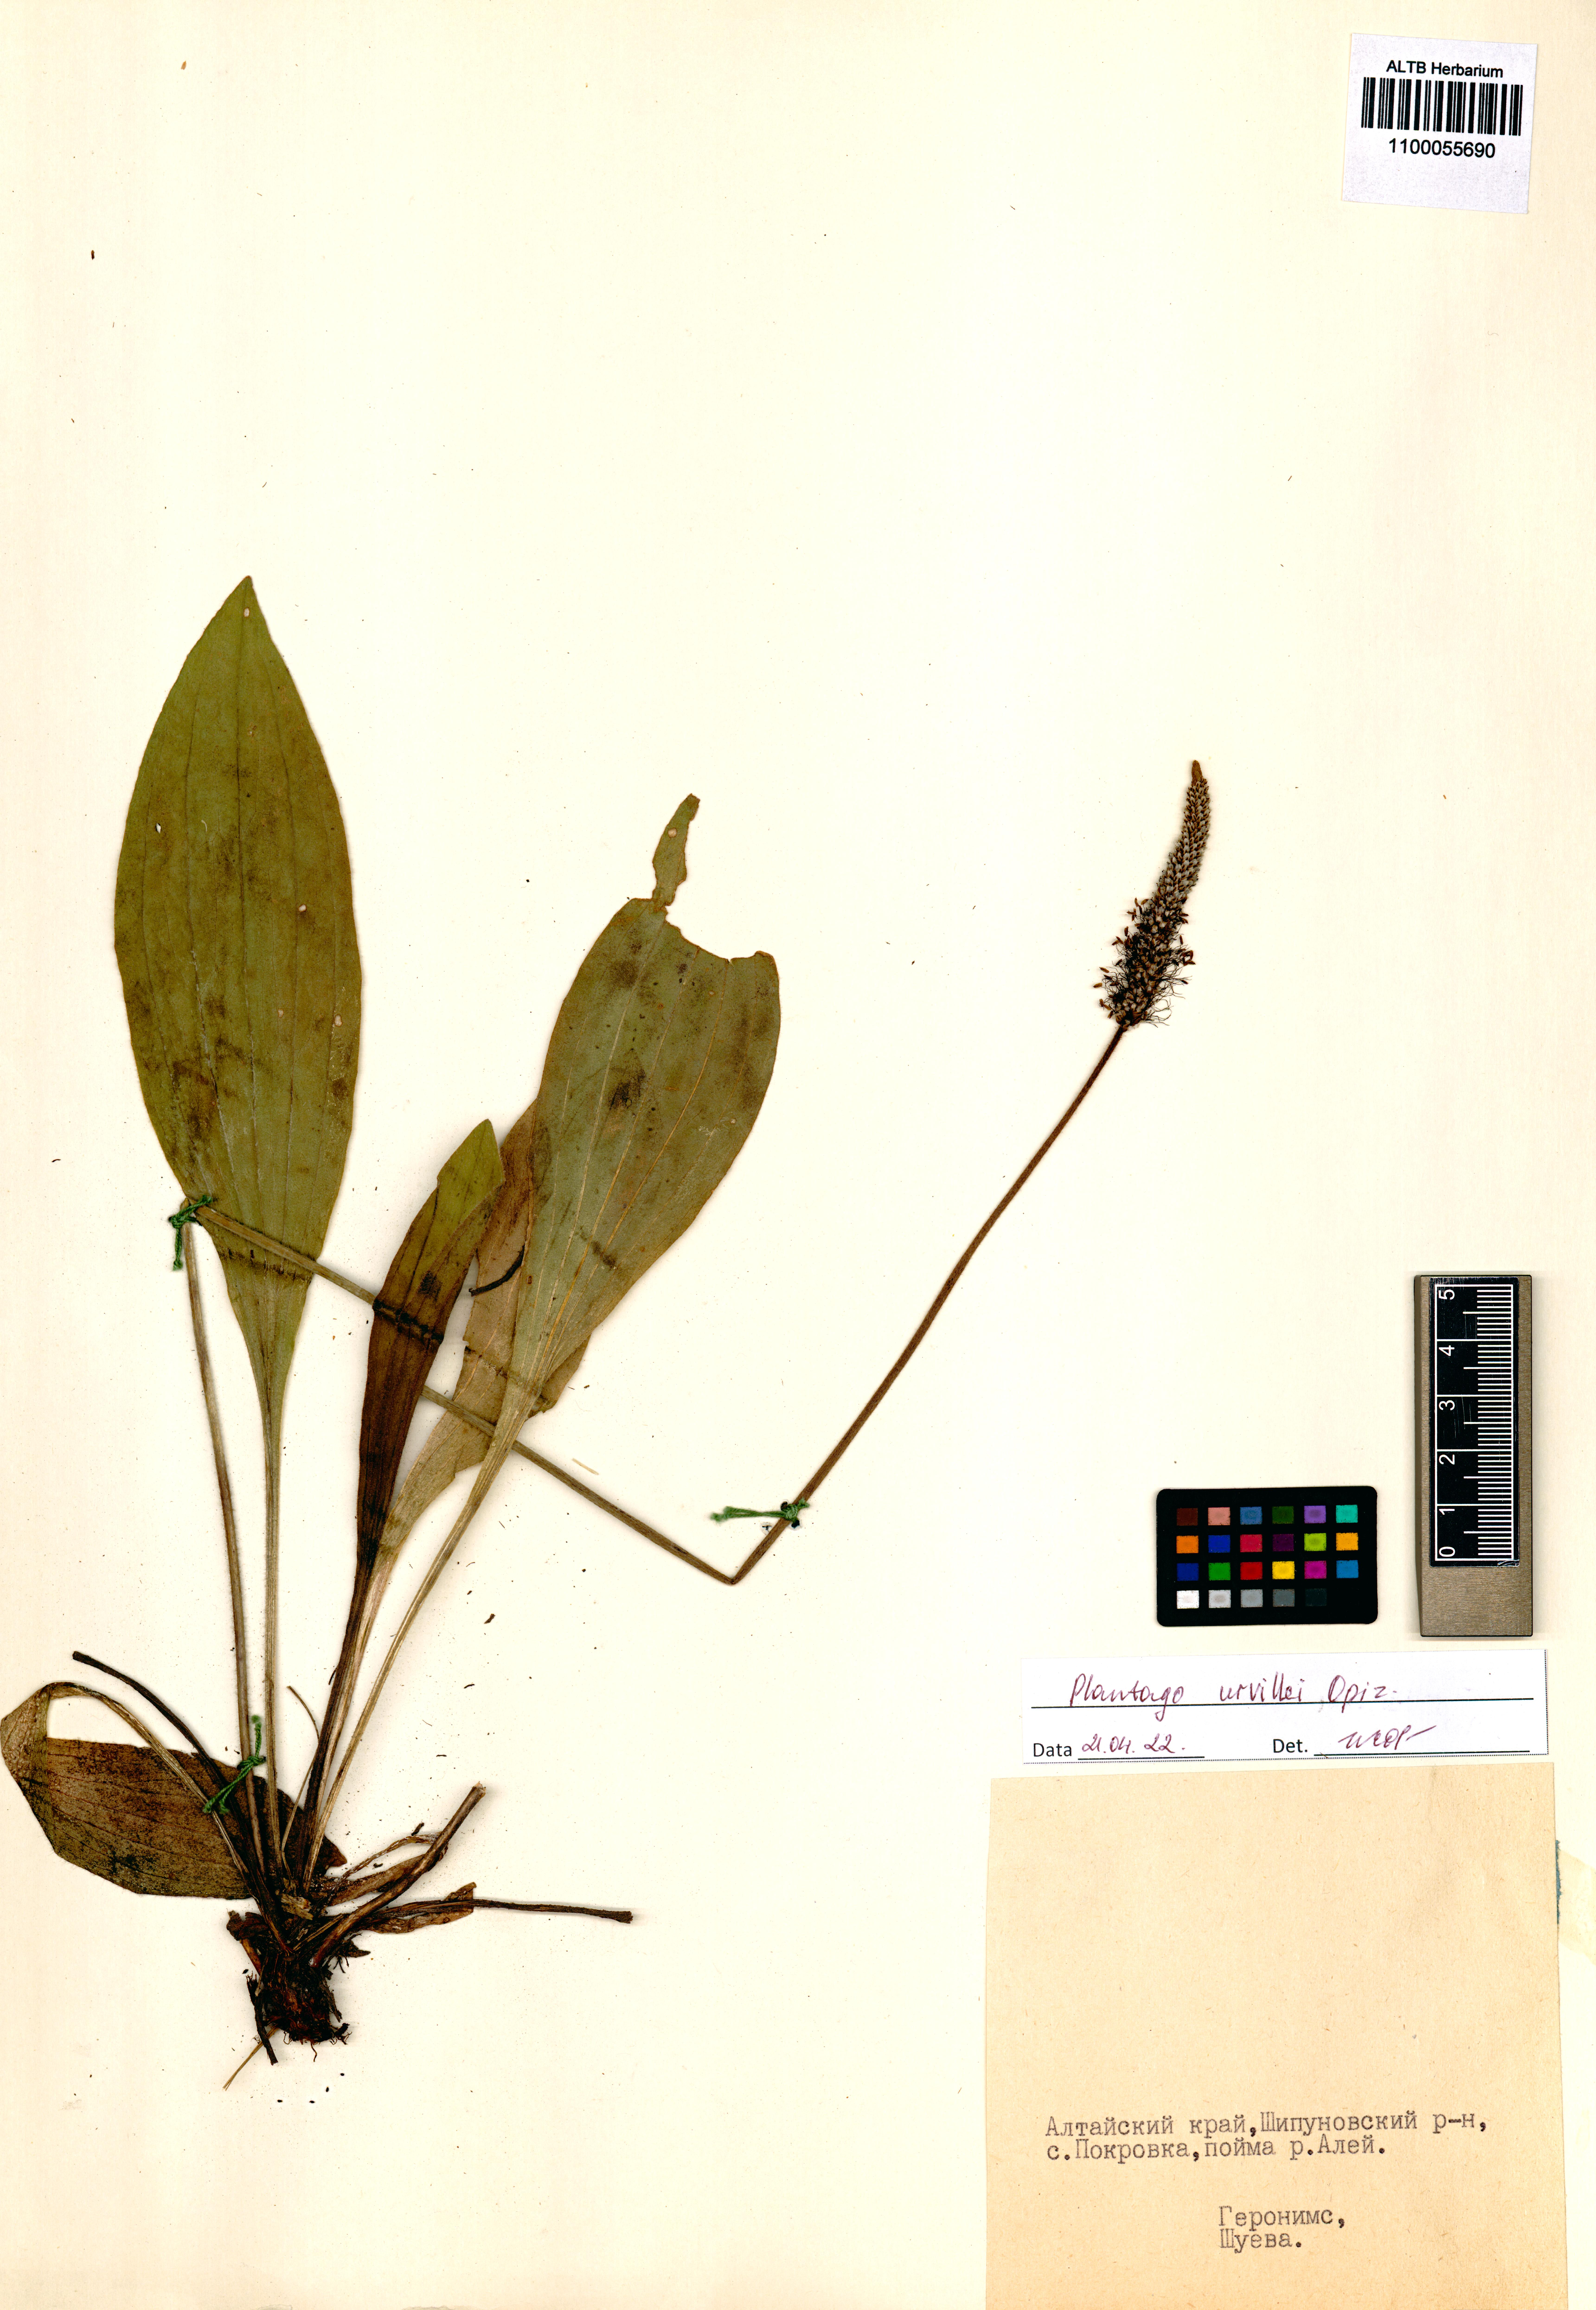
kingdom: Plantae
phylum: Tracheophyta
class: Magnoliopsida
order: Lamiales
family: Plantaginaceae
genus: Plantago
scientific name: Plantago urvillei
